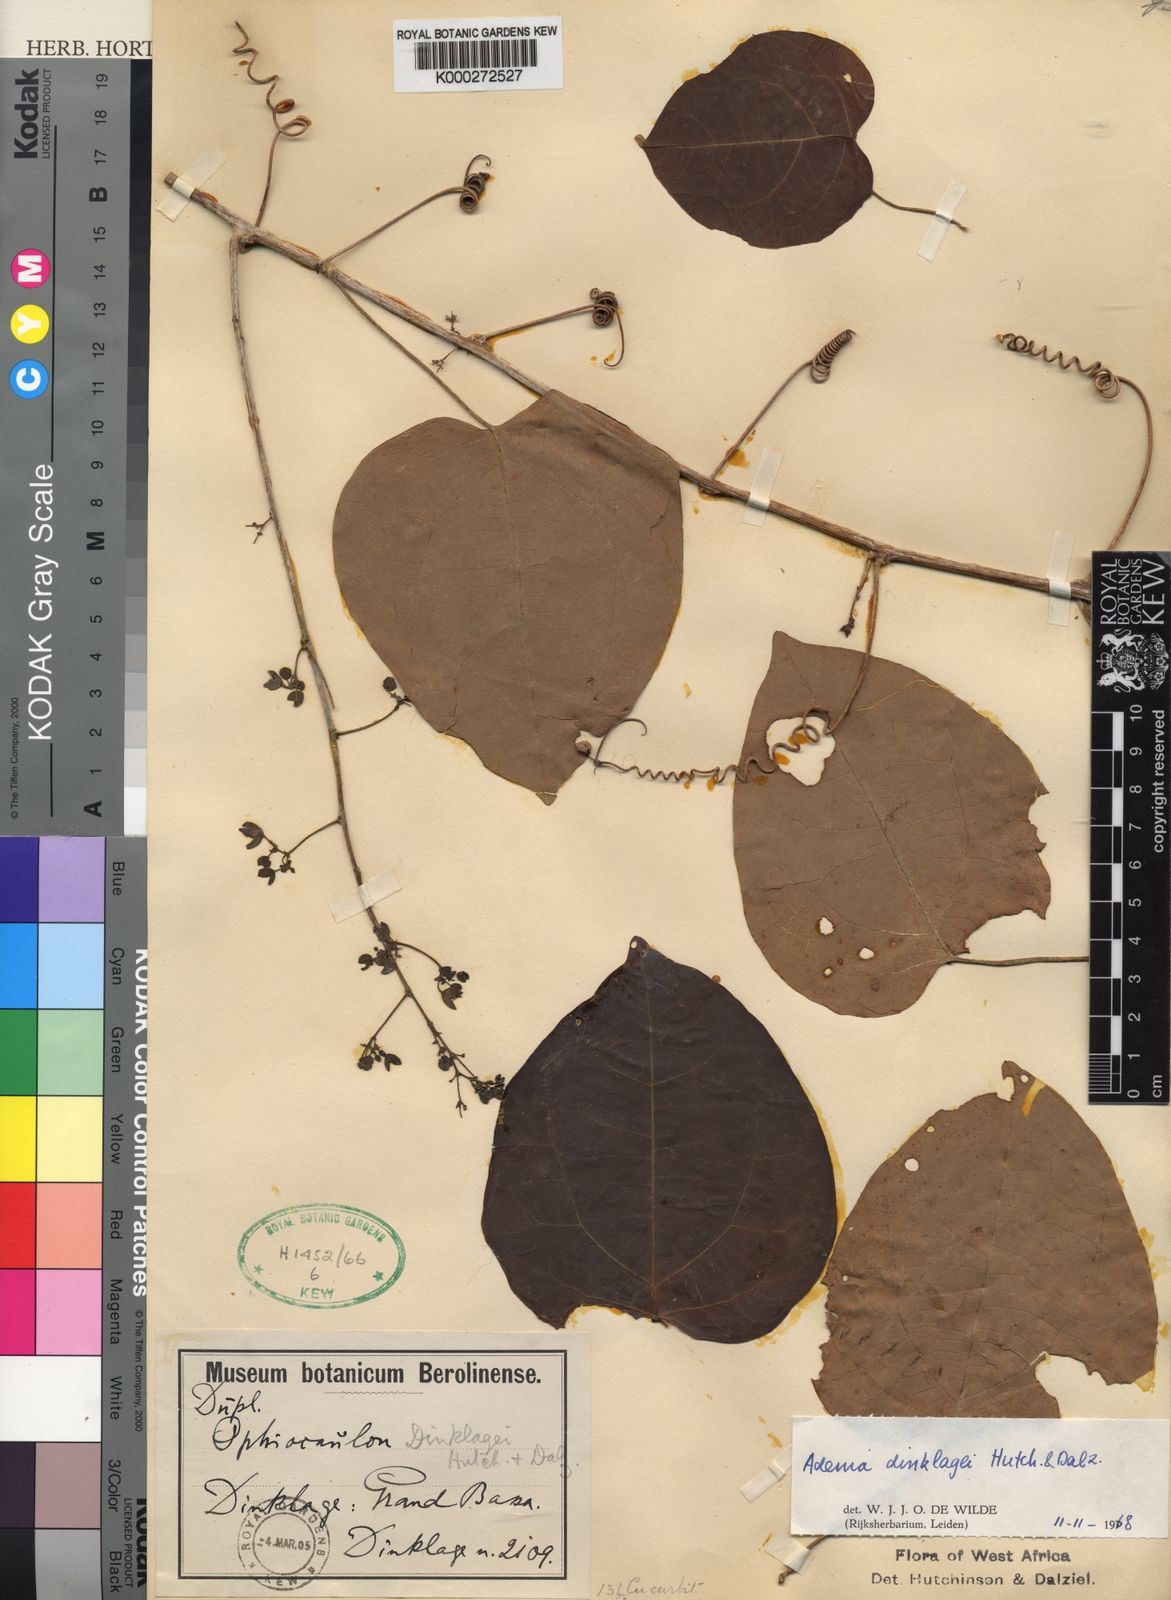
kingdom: Plantae
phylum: Tracheophyta
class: Magnoliopsida
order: Malpighiales
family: Passifloraceae
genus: Adenia
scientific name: Adenia dinklagei
